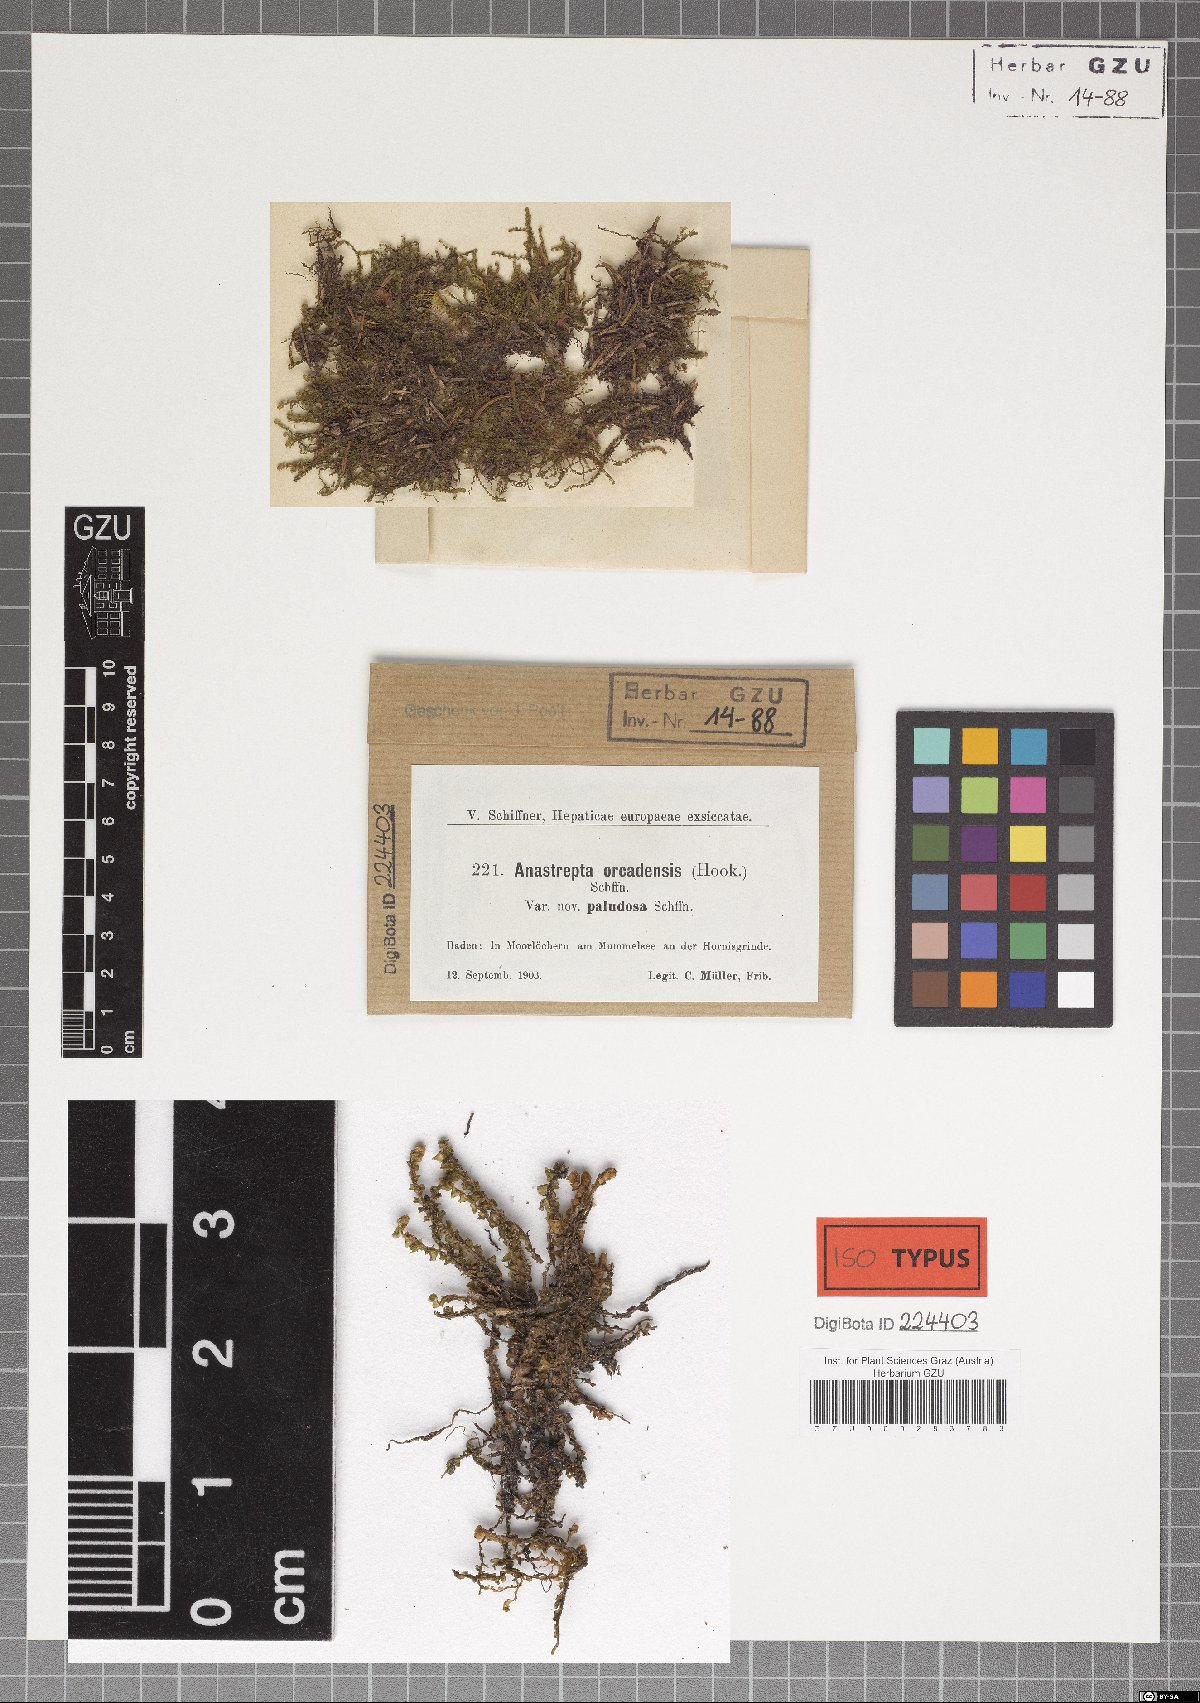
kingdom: Plantae
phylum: Marchantiophyta
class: Jungermanniopsida
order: Jungermanniales
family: Anastrophyllaceae
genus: Anastrepta
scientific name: Anastrepta orcadensis
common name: Orkney notchwort
